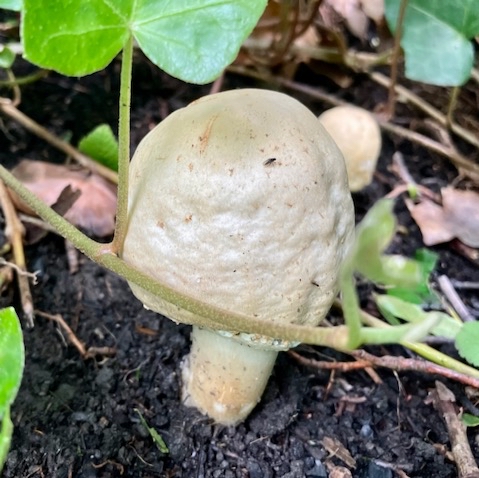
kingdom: Fungi
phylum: Basidiomycota
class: Agaricomycetes
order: Agaricales
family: Agaricaceae
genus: Agaricus
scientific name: Agaricus
